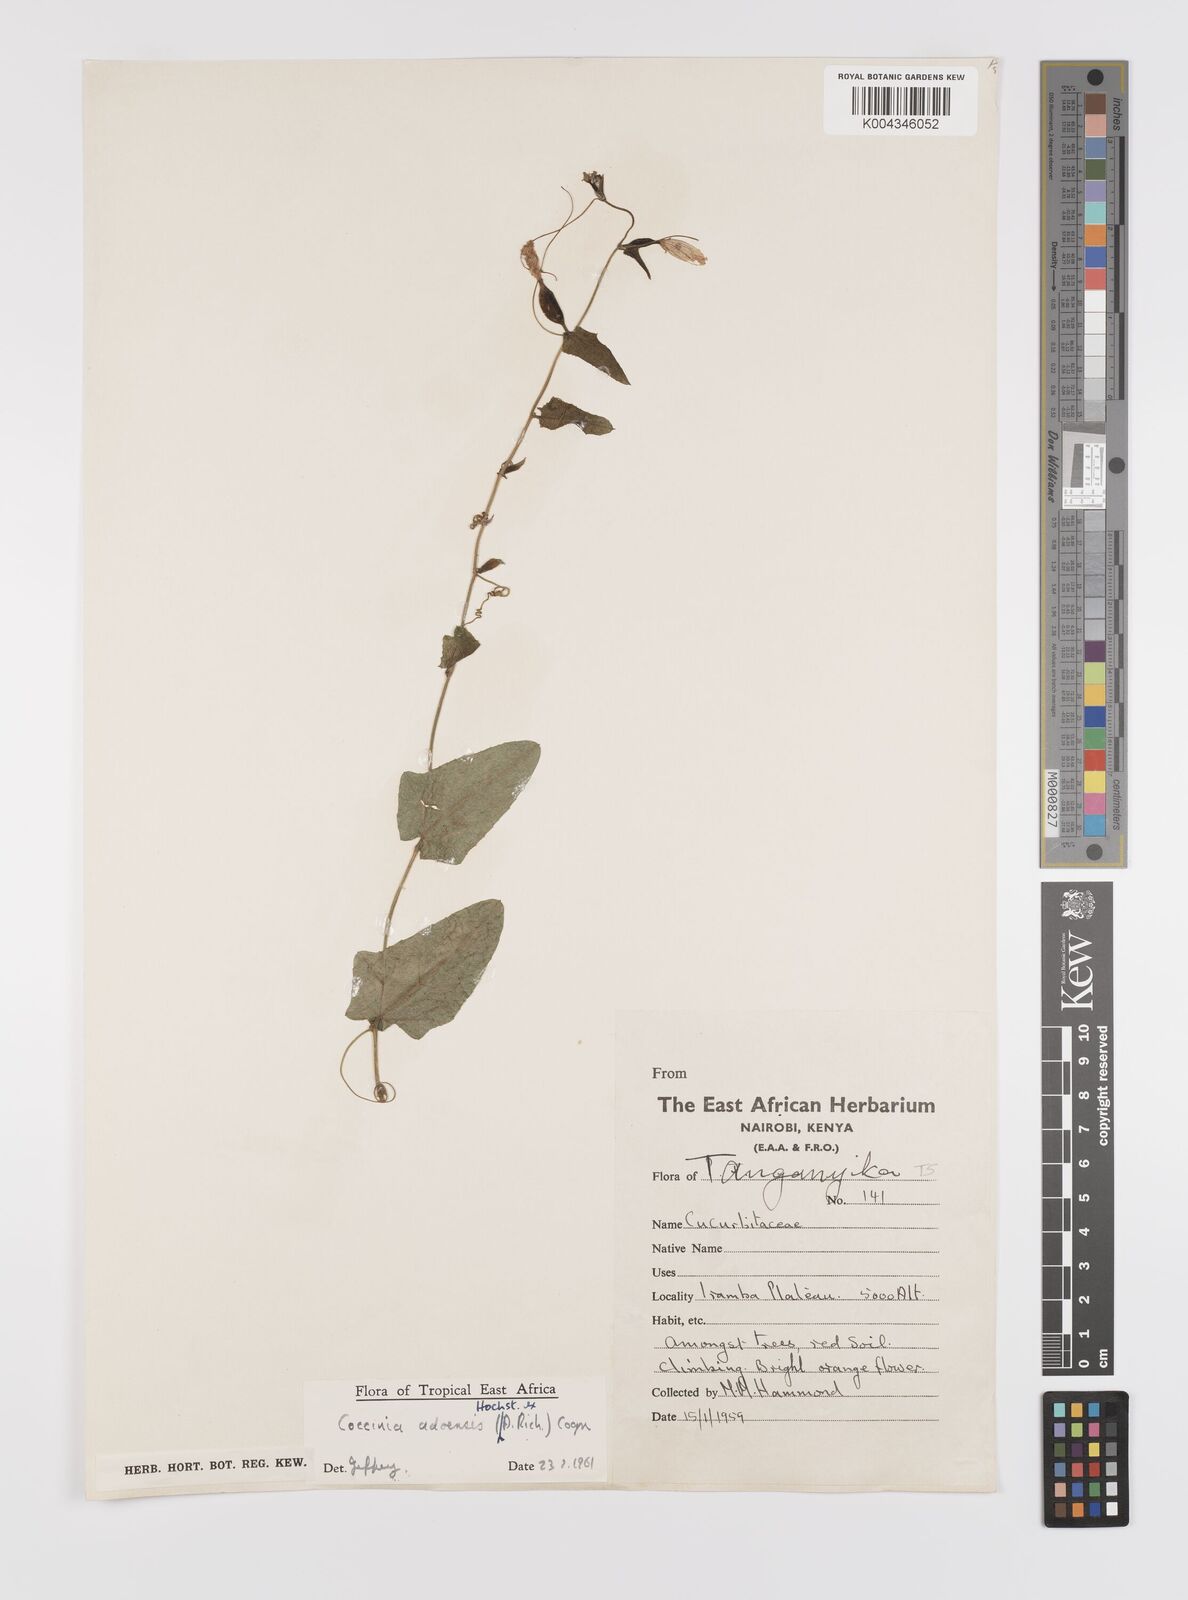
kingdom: Plantae
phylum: Tracheophyta
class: Magnoliopsida
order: Cucurbitales
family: Cucurbitaceae
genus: Coccinia
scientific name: Coccinia adoensis
